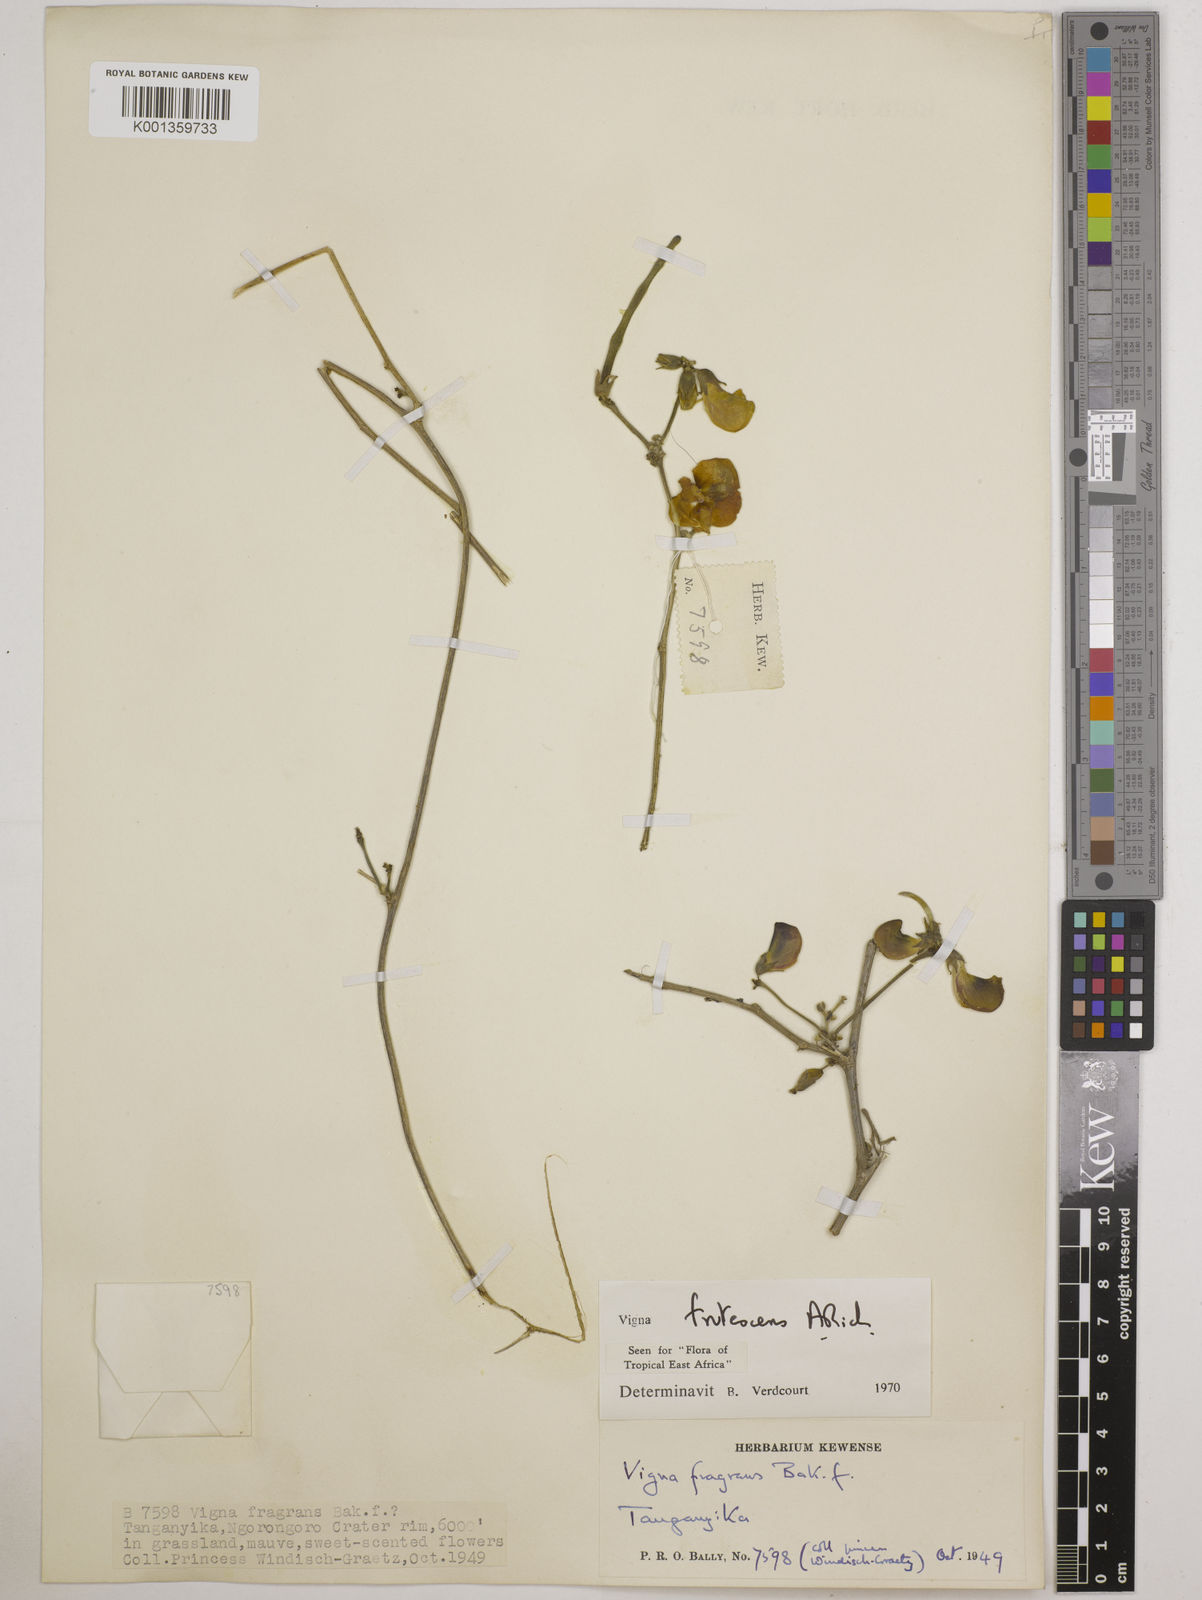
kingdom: Plantae
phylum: Tracheophyta
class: Magnoliopsida
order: Fabales
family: Fabaceae
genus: Vigna
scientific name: Vigna frutescens
